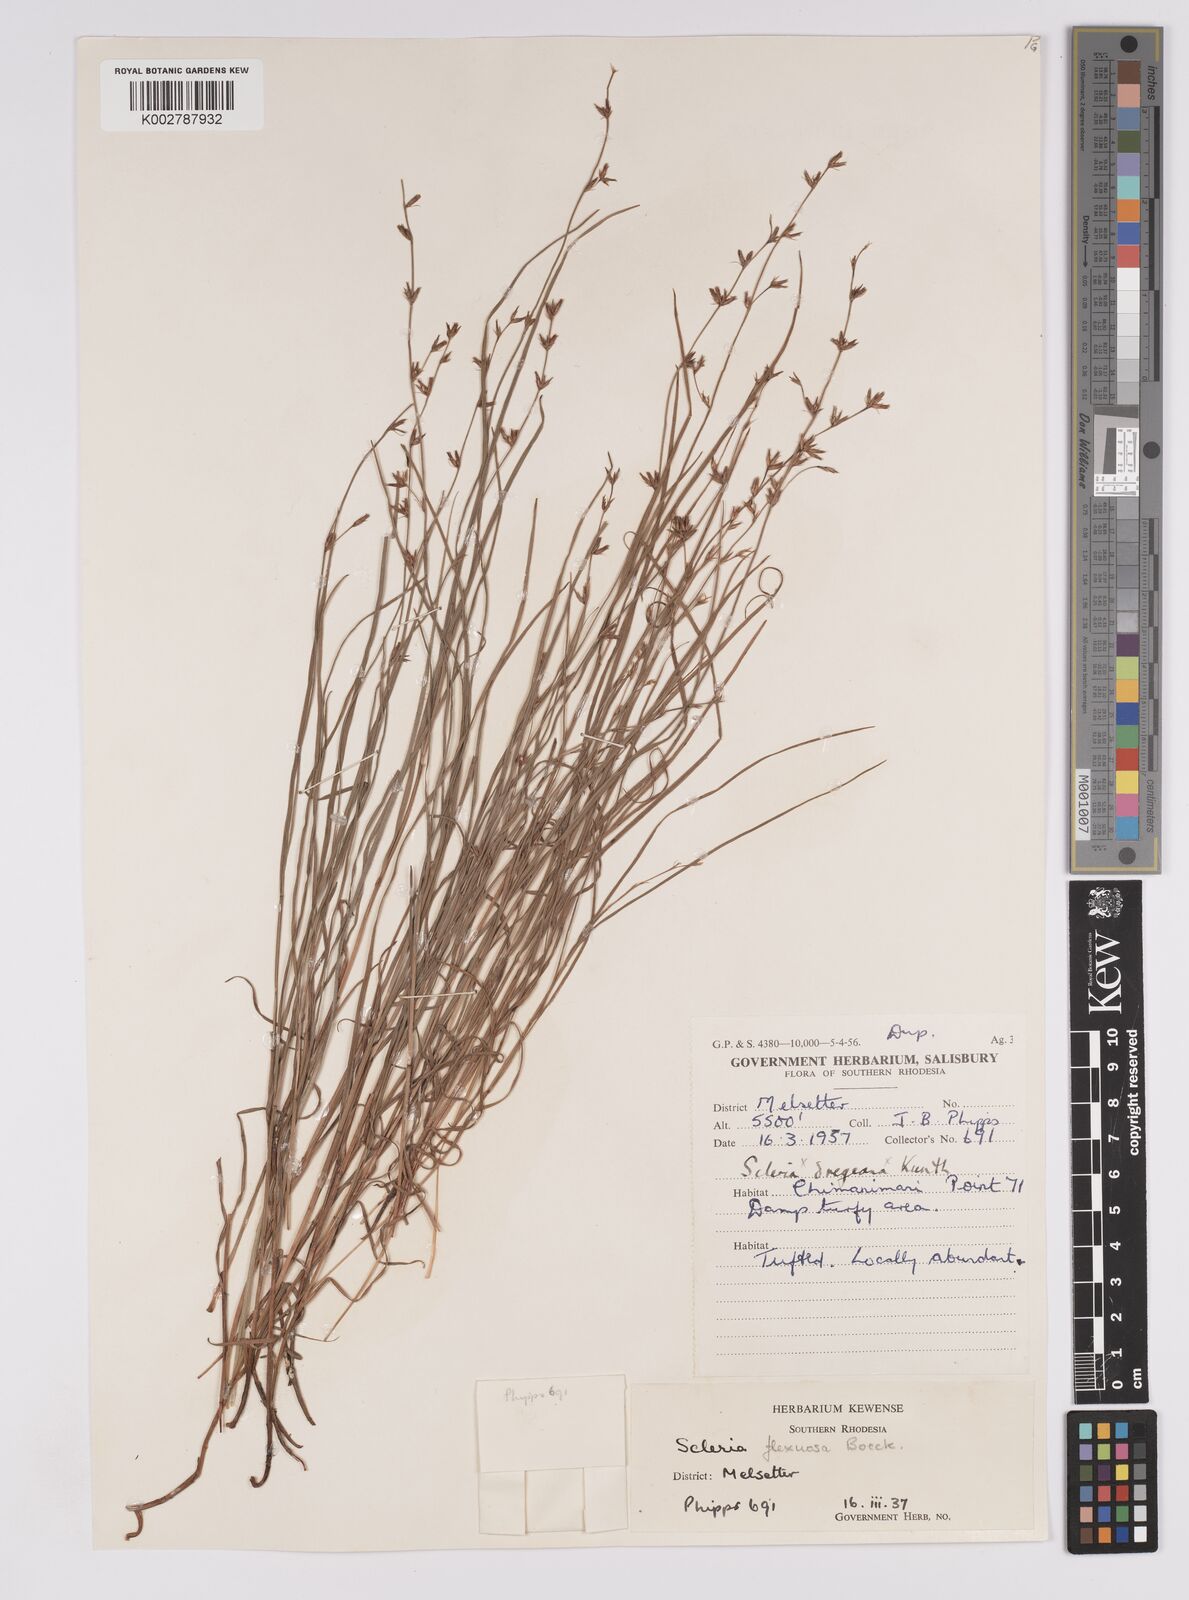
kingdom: Plantae
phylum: Tracheophyta
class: Liliopsida
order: Poales
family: Cyperaceae
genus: Scleria
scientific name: Scleria flexuosa
